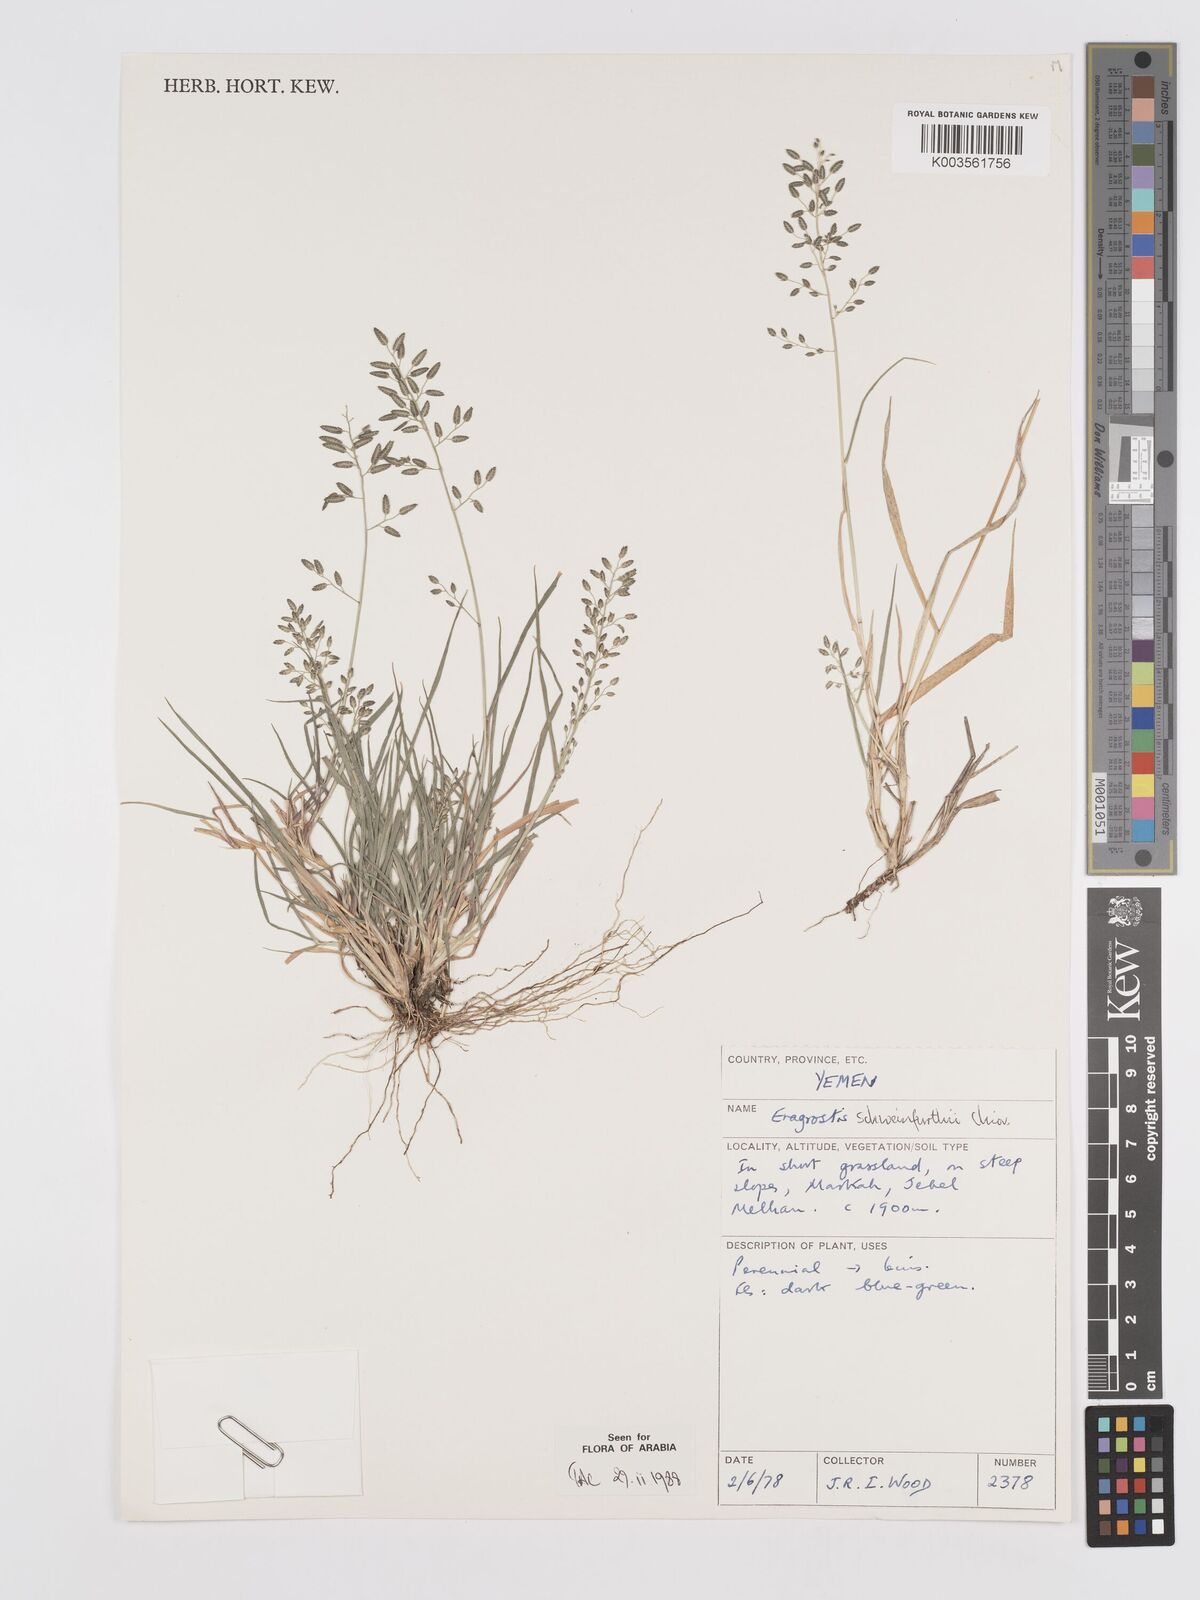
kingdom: Plantae
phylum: Tracheophyta
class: Liliopsida
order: Poales
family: Poaceae
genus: Eragrostis
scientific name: Eragrostis schweinfurthii
